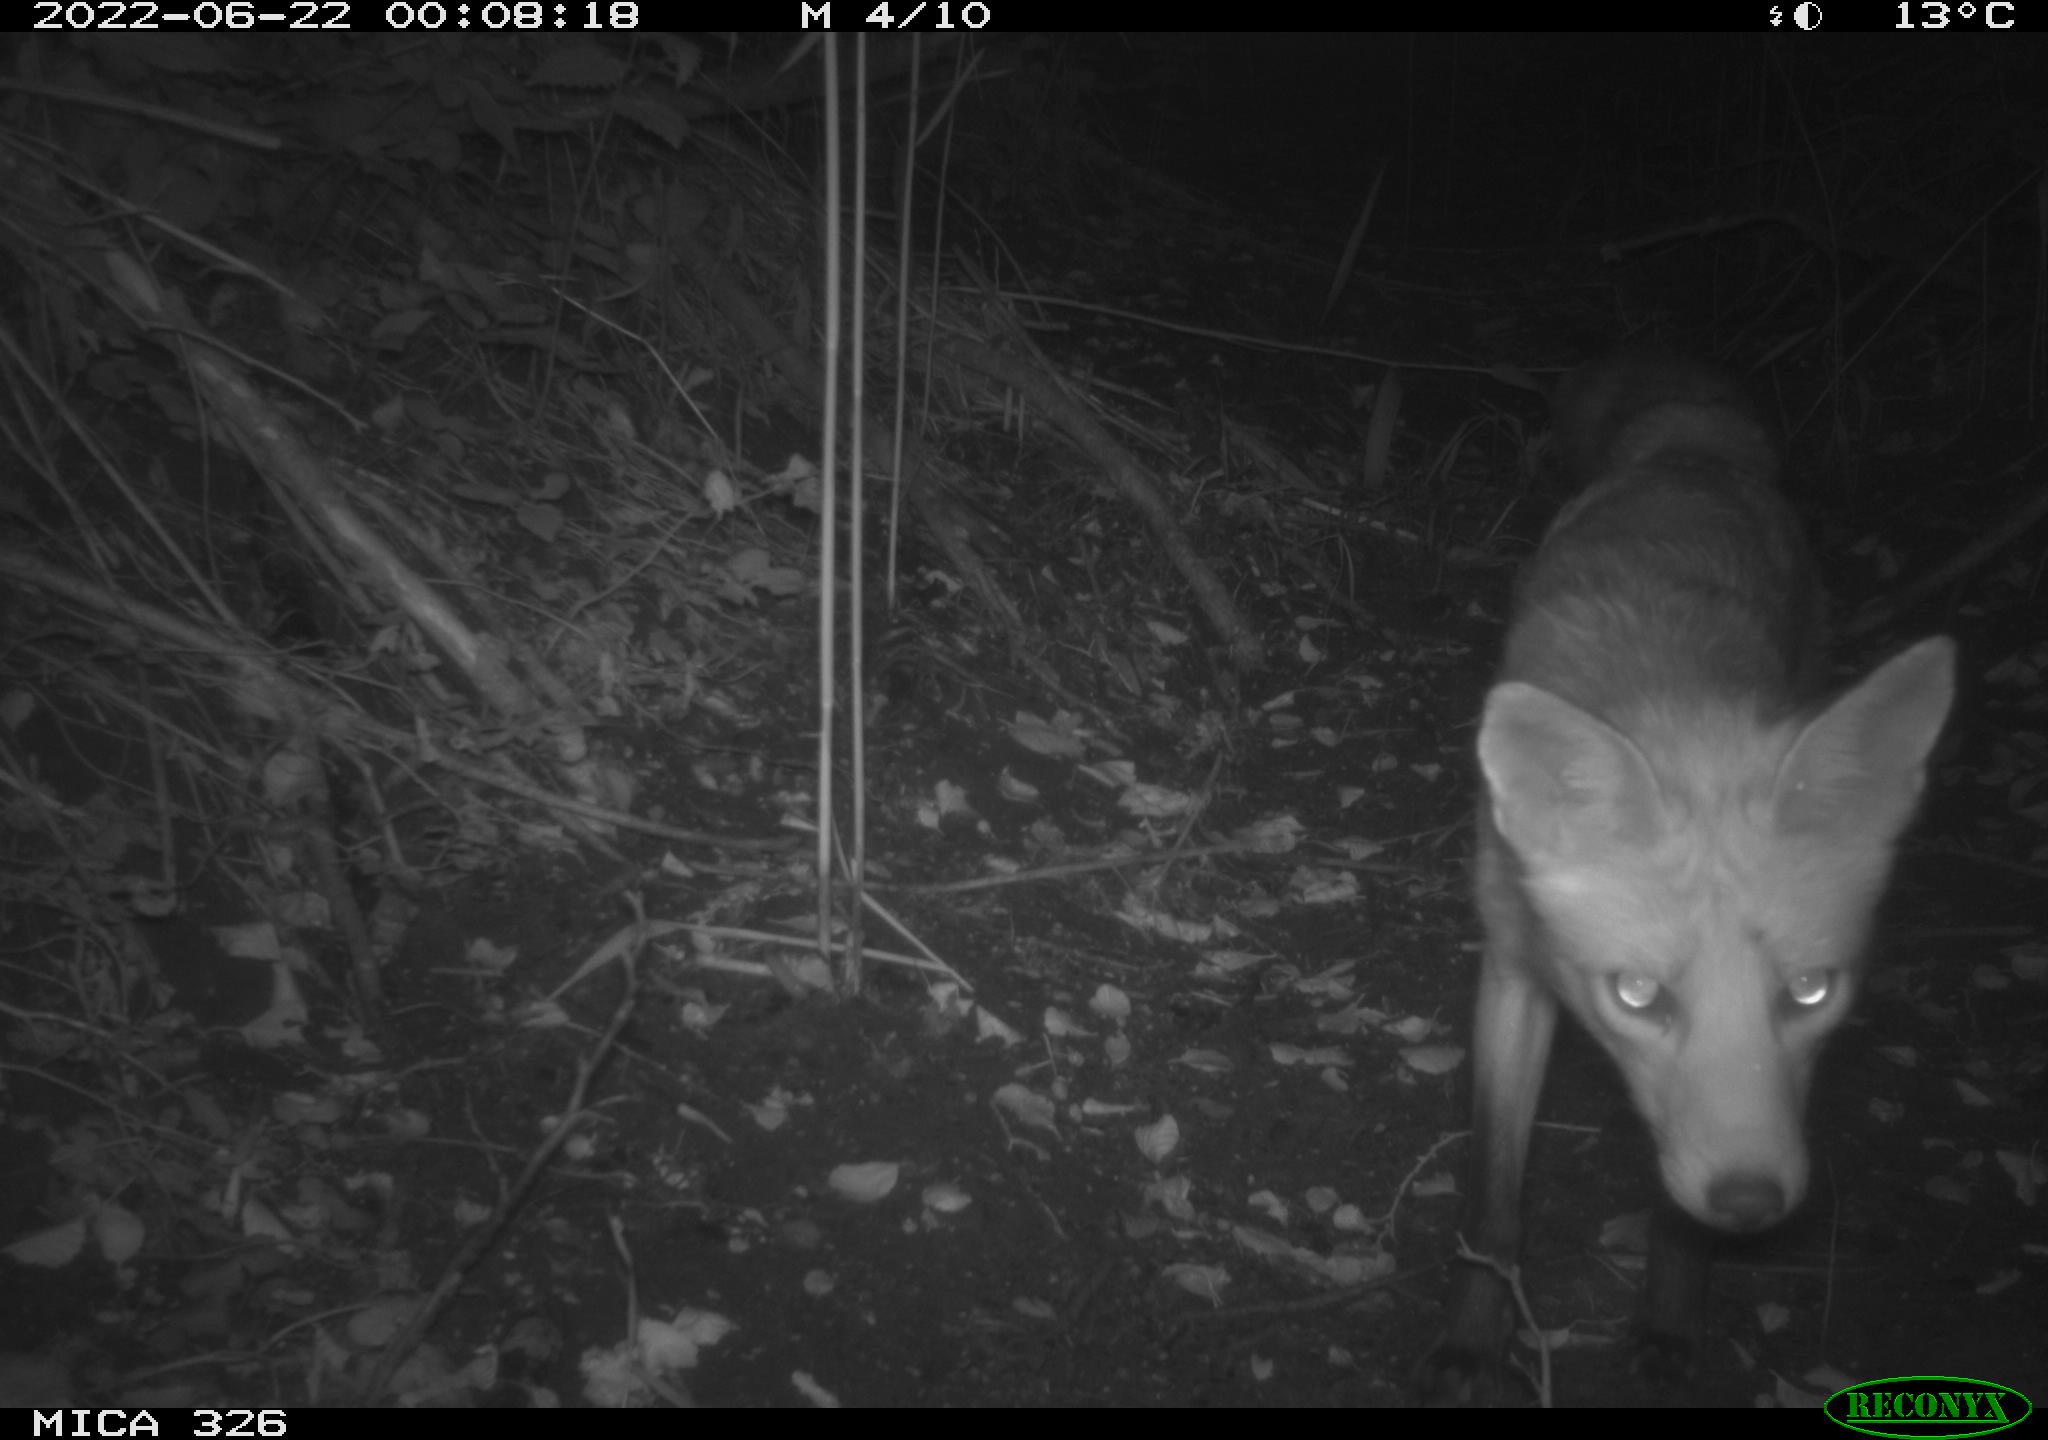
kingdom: Animalia
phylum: Chordata
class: Mammalia
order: Carnivora
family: Canidae
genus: Vulpes
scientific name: Vulpes vulpes
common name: Red fox
